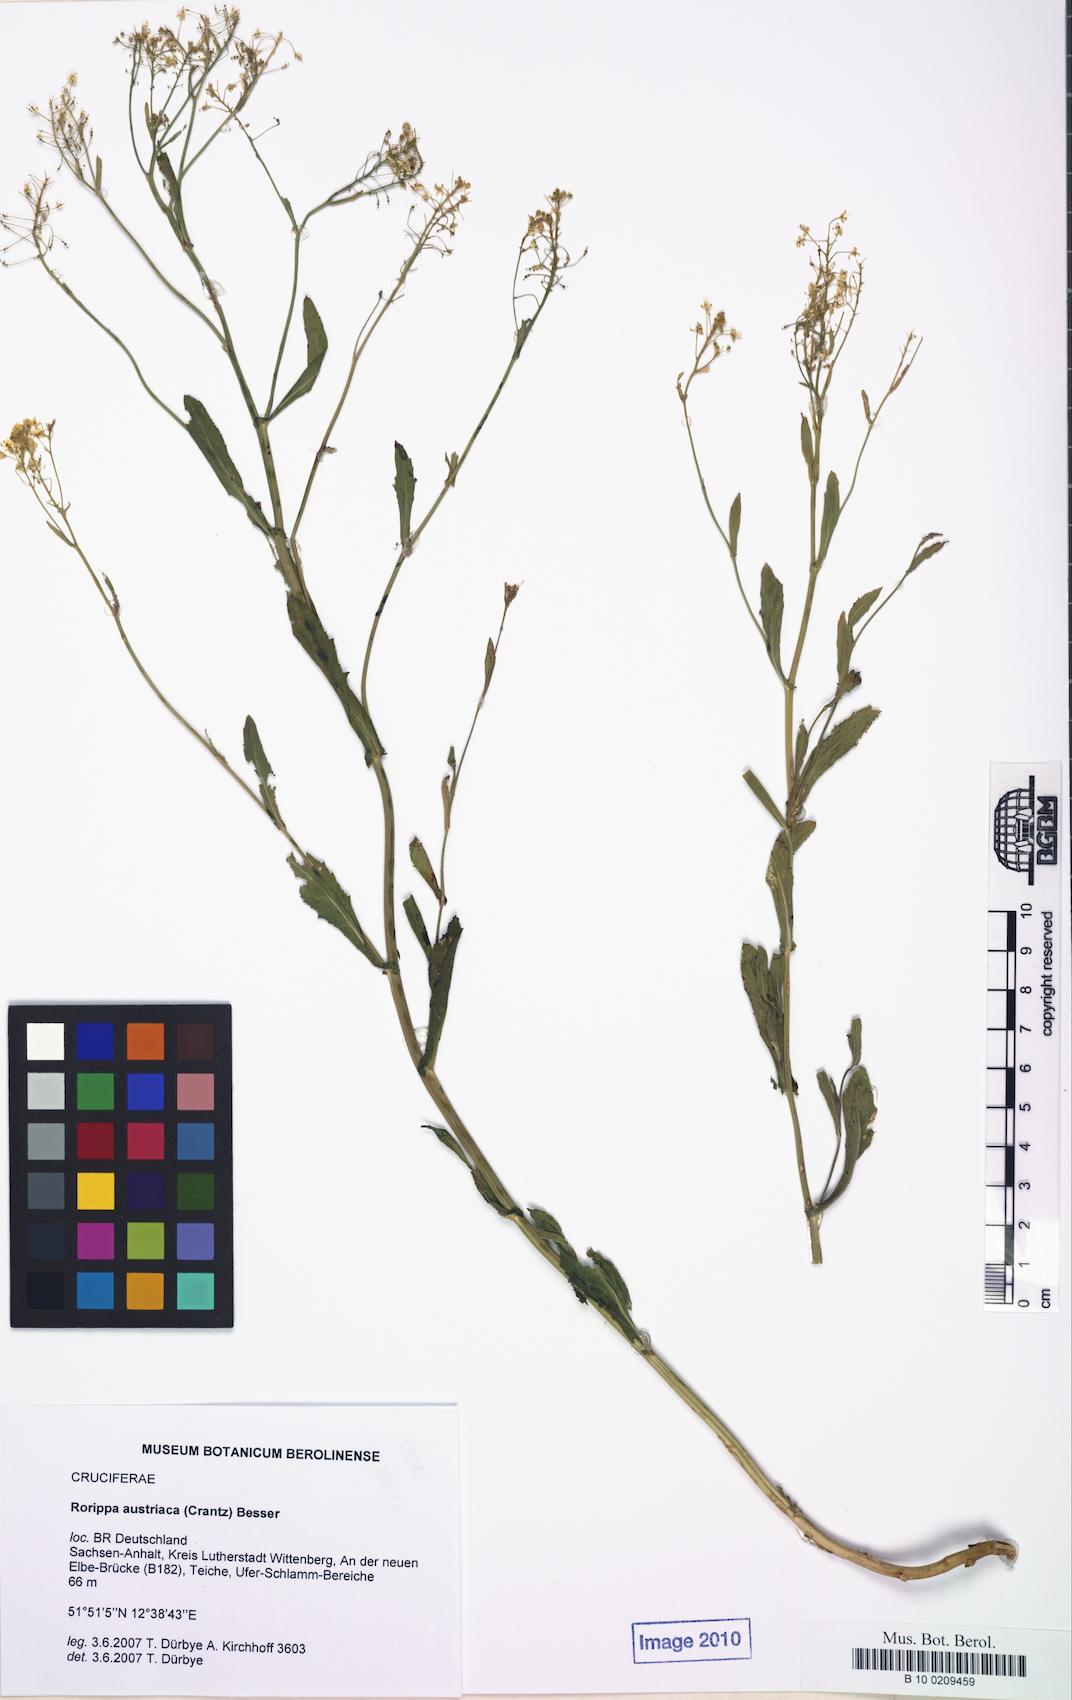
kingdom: Plantae
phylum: Tracheophyta
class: Magnoliopsida
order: Brassicales
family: Brassicaceae
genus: Rorippa
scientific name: Rorippa austriaca
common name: Austrian yellow-cress
